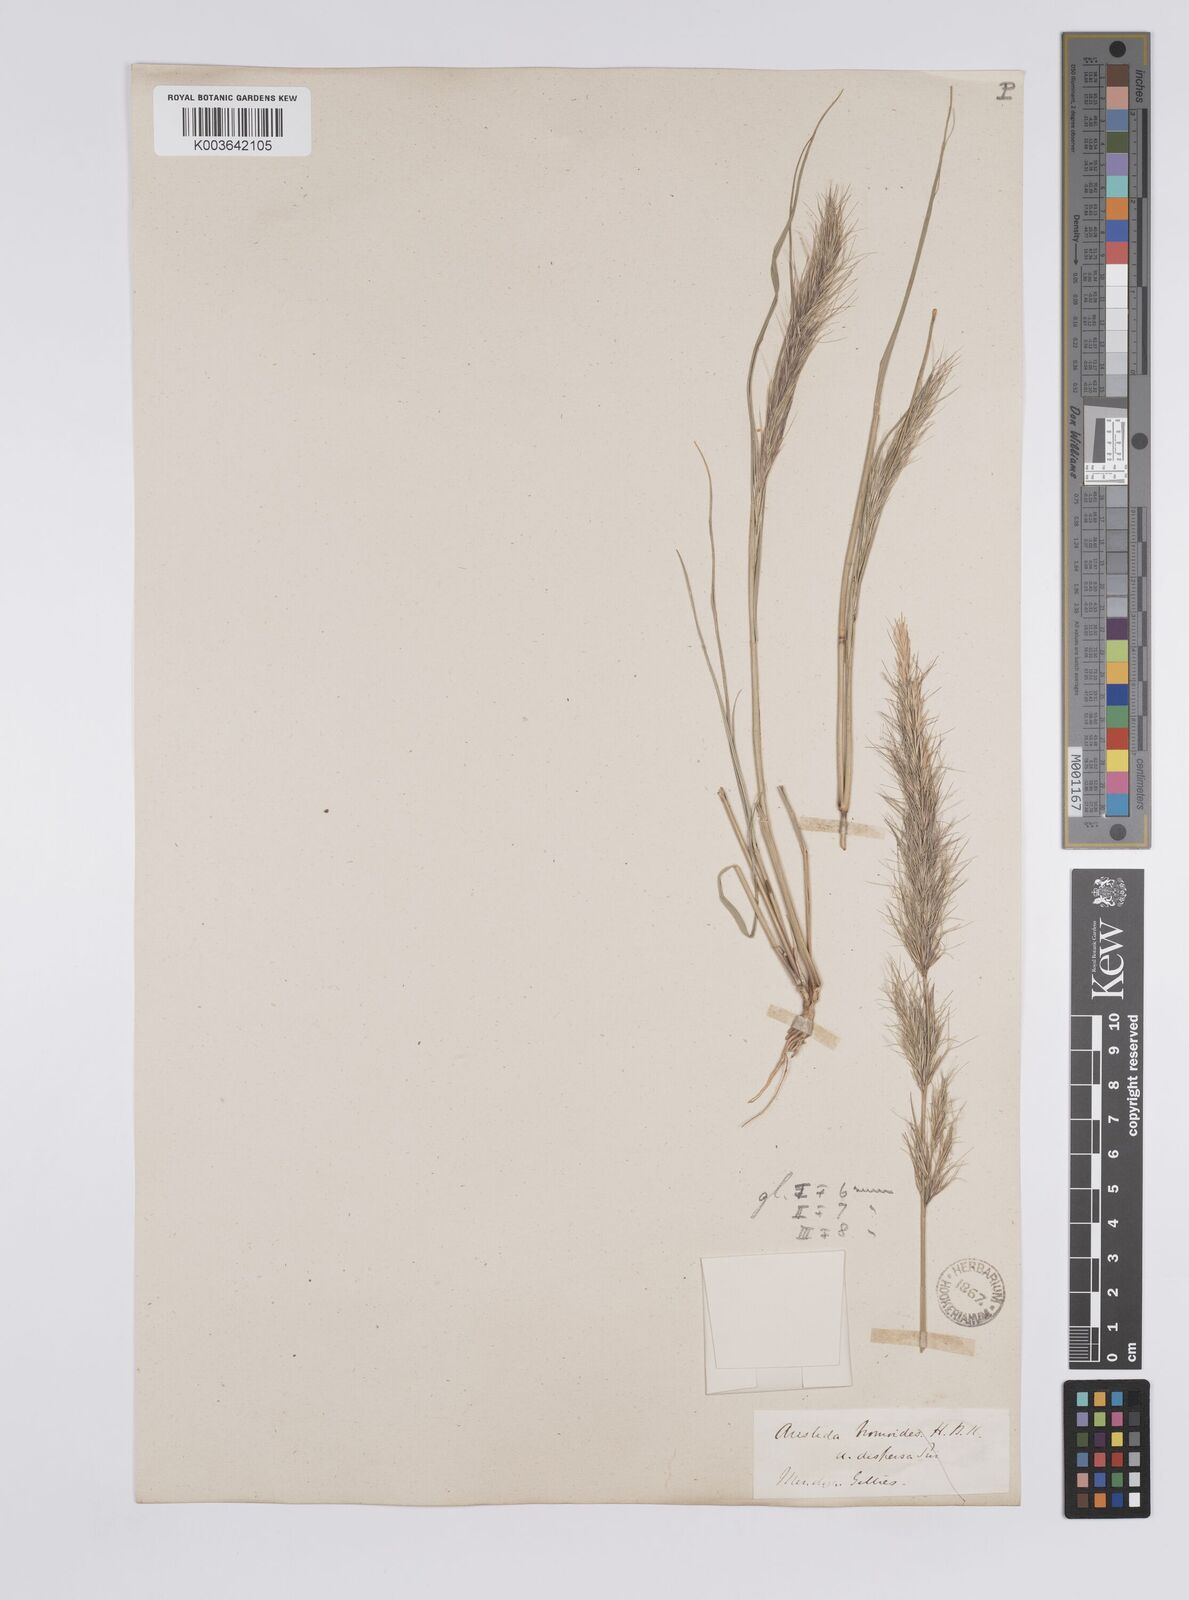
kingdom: Plantae
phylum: Tracheophyta
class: Liliopsida
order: Poales
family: Poaceae
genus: Aristida
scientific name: Aristida adscensionis
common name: Sixweeks threeawn
